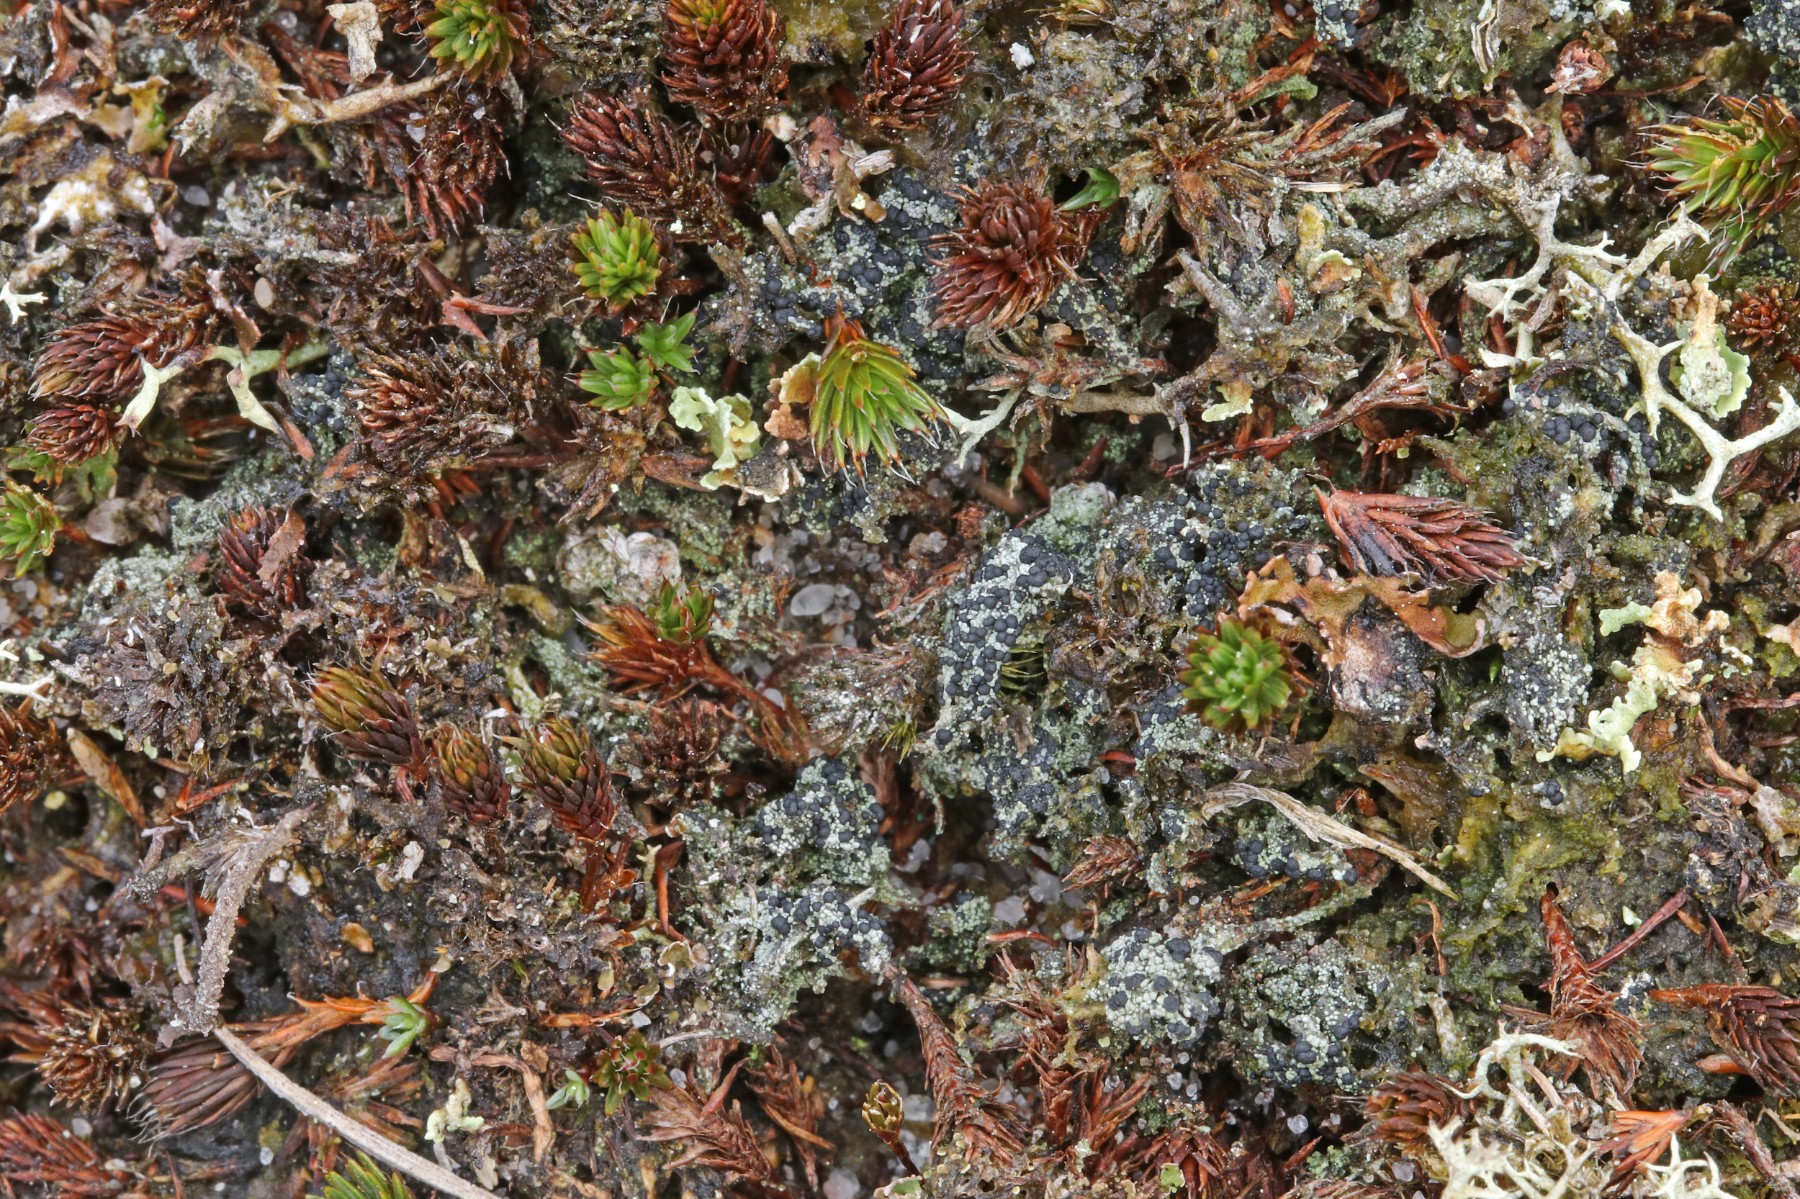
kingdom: Fungi
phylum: Ascomycota
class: Lecanoromycetes
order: Lecanorales
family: Byssolomataceae
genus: Micarea
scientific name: Micarea lignaria
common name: tørve-knaplav
